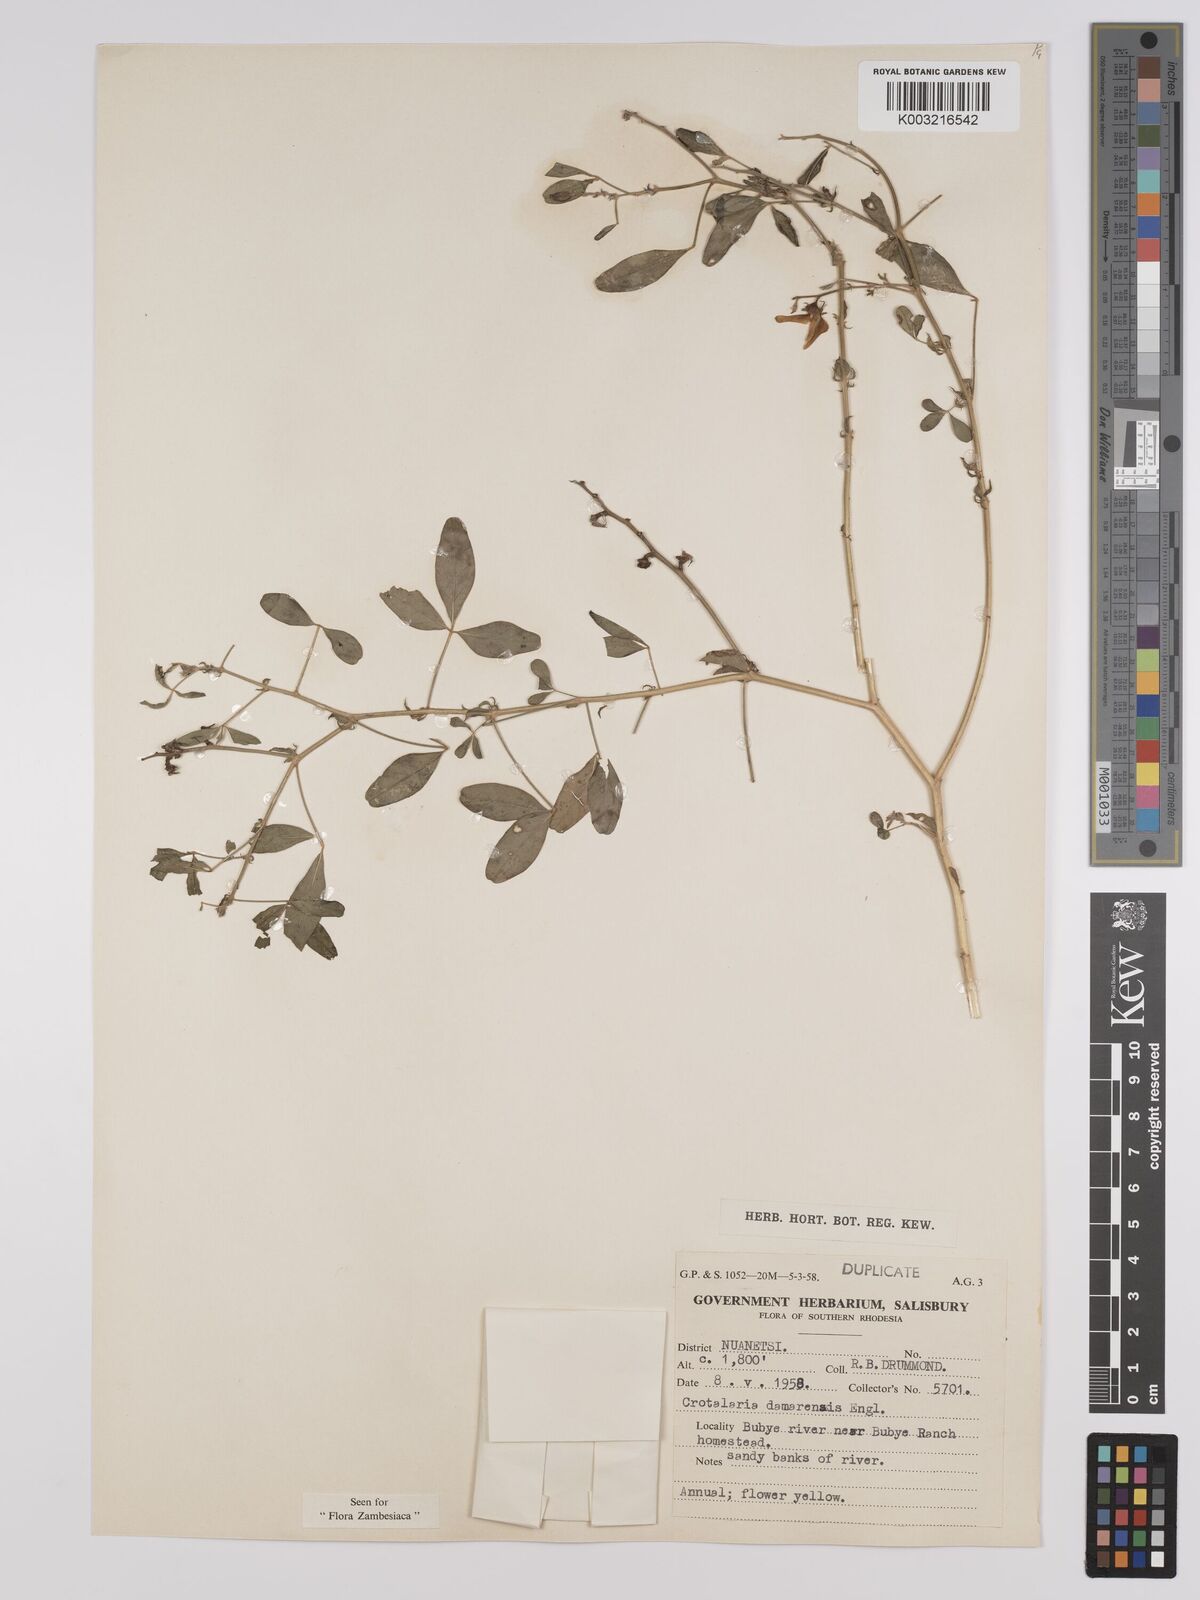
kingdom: Plantae
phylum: Tracheophyta
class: Magnoliopsida
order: Fabales
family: Fabaceae
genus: Crotalaria
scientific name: Crotalaria damarensis
